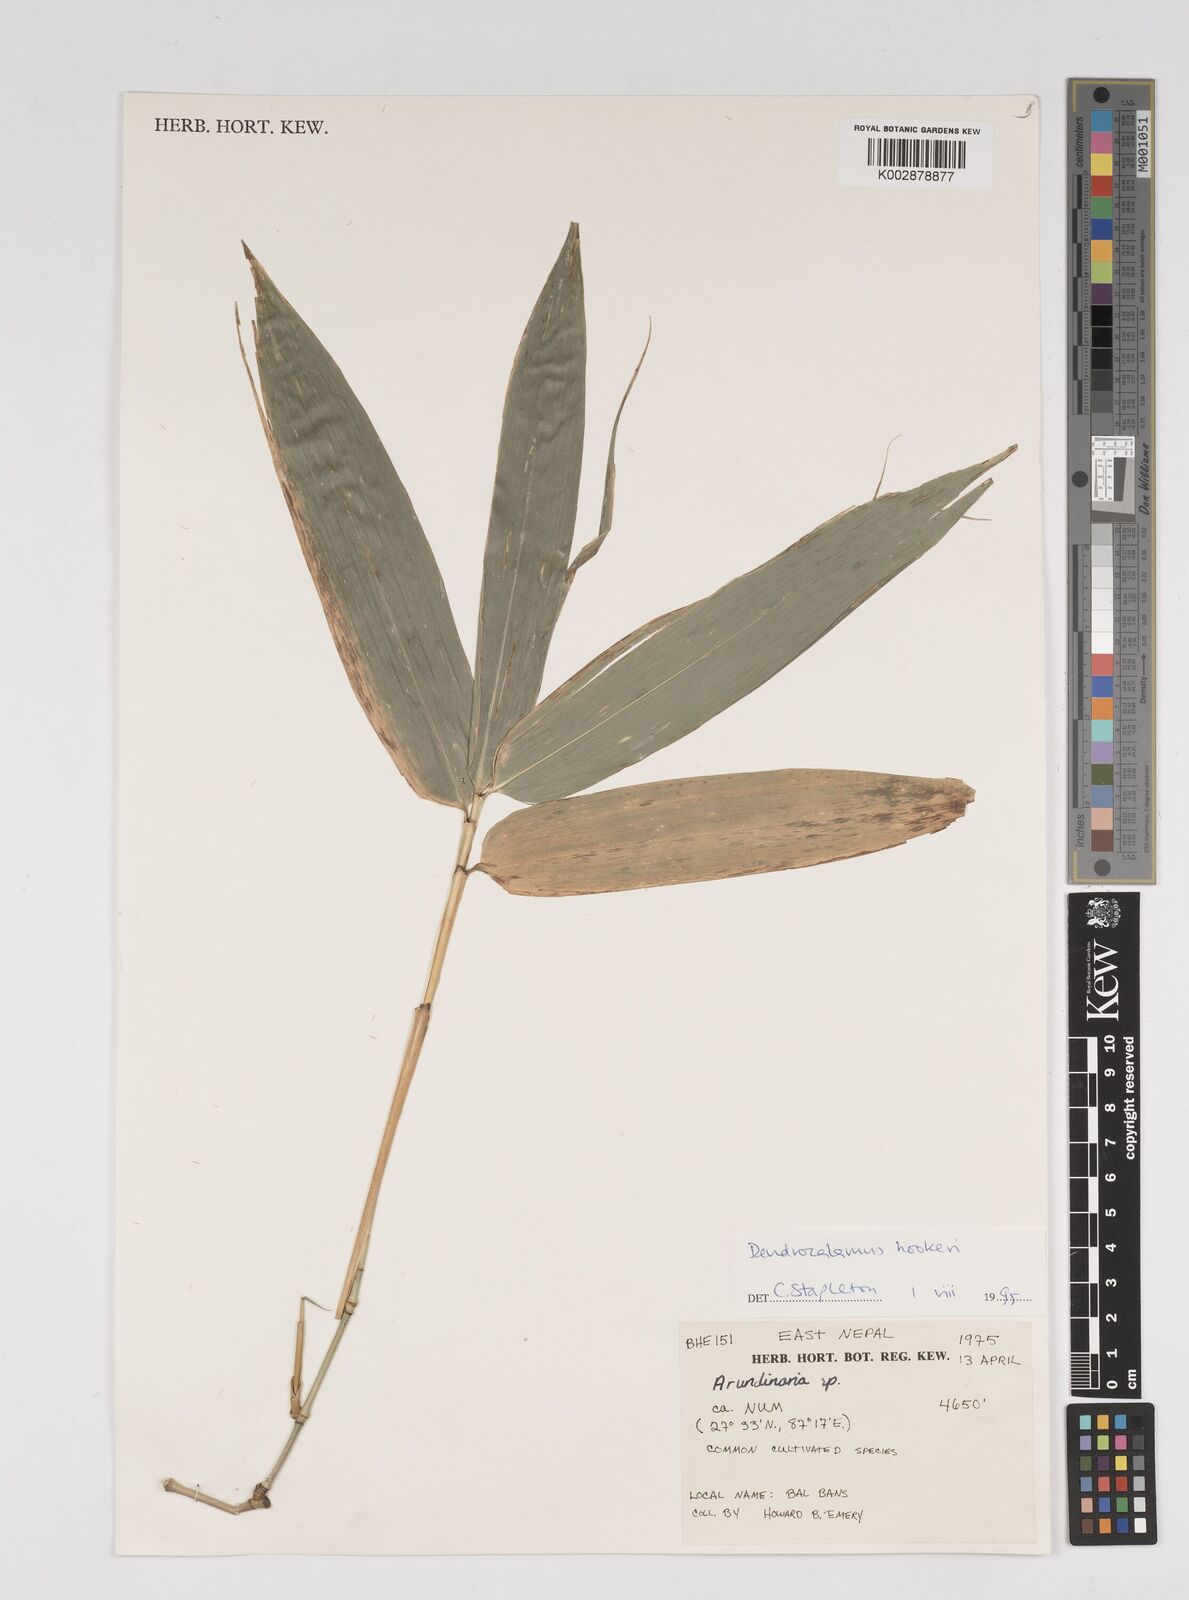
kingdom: Plantae
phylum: Tracheophyta
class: Liliopsida
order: Poales
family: Poaceae
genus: Dendrocalamus
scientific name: Dendrocalamus hookeri
